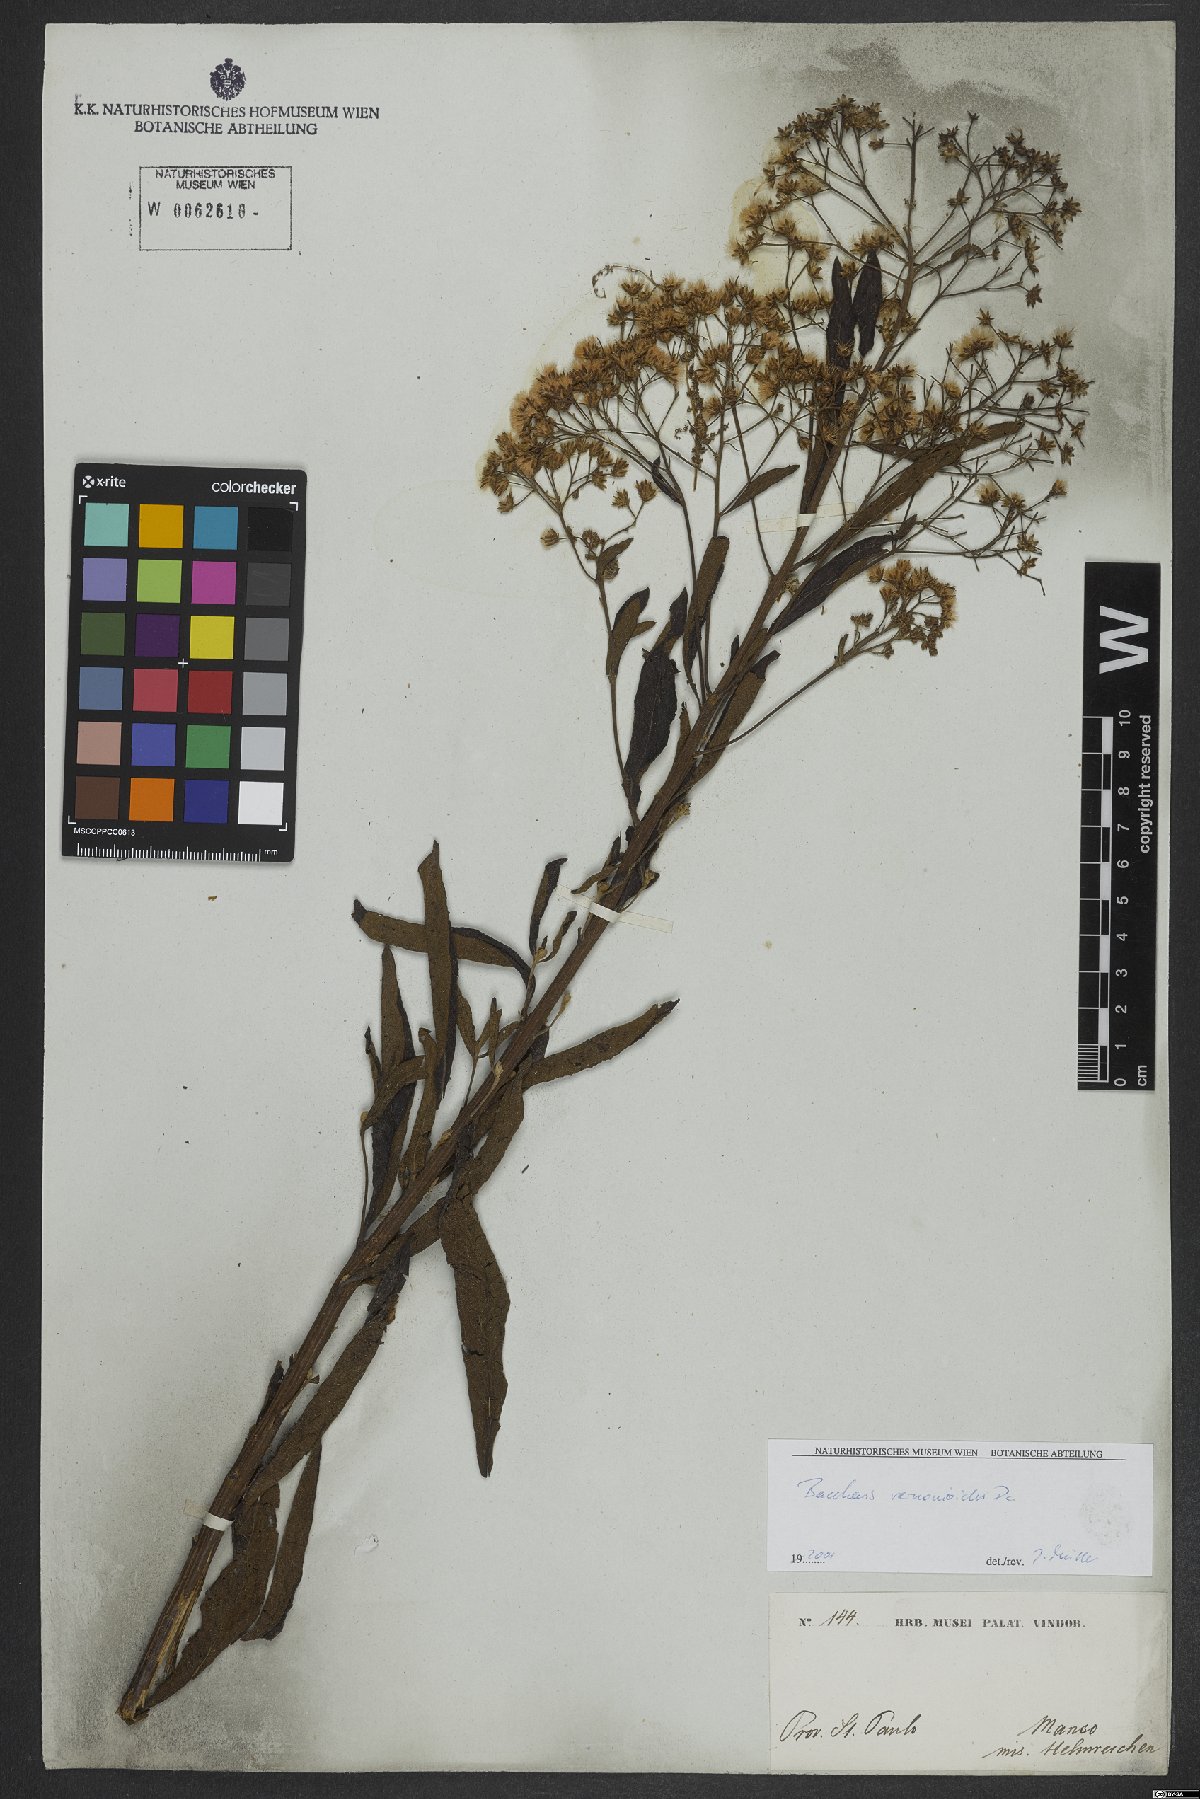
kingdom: Plantae
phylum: Tracheophyta
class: Magnoliopsida
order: Asterales
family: Asteraceae
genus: Baccharis
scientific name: Baccharis rufidula
